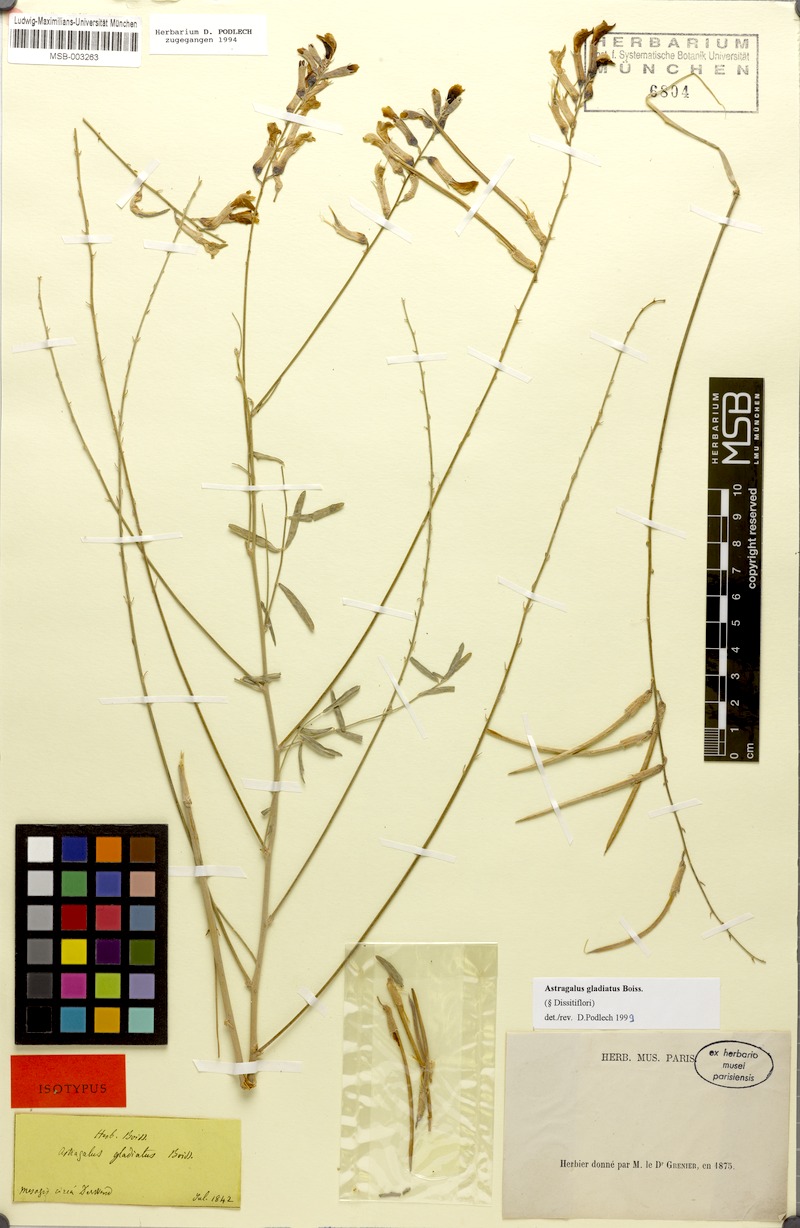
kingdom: Plantae
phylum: Tracheophyta
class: Magnoliopsida
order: Fabales
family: Fabaceae
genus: Astragalus
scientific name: Astragalus gladiatus
